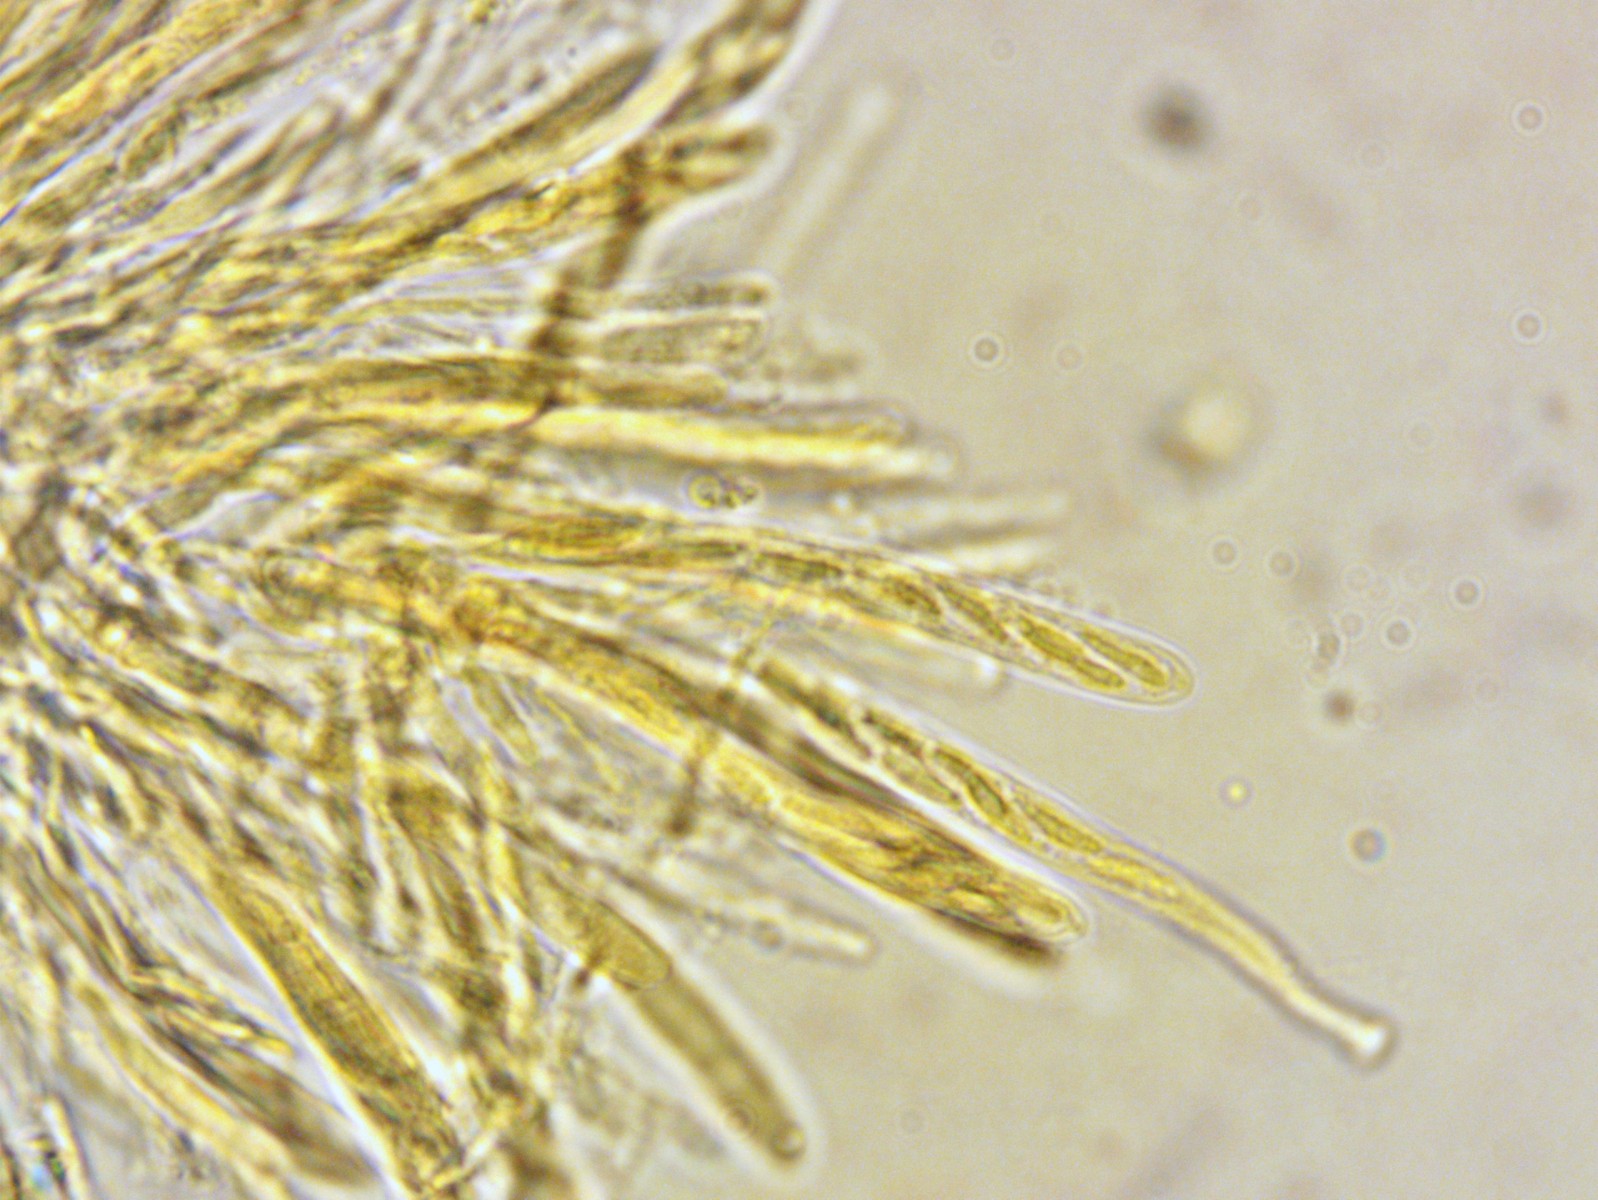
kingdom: Fungi
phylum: Ascomycota
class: Leotiomycetes
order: Helotiales
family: Mollisiaceae
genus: Mollisia
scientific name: Mollisia ligni
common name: ved-gråskive
